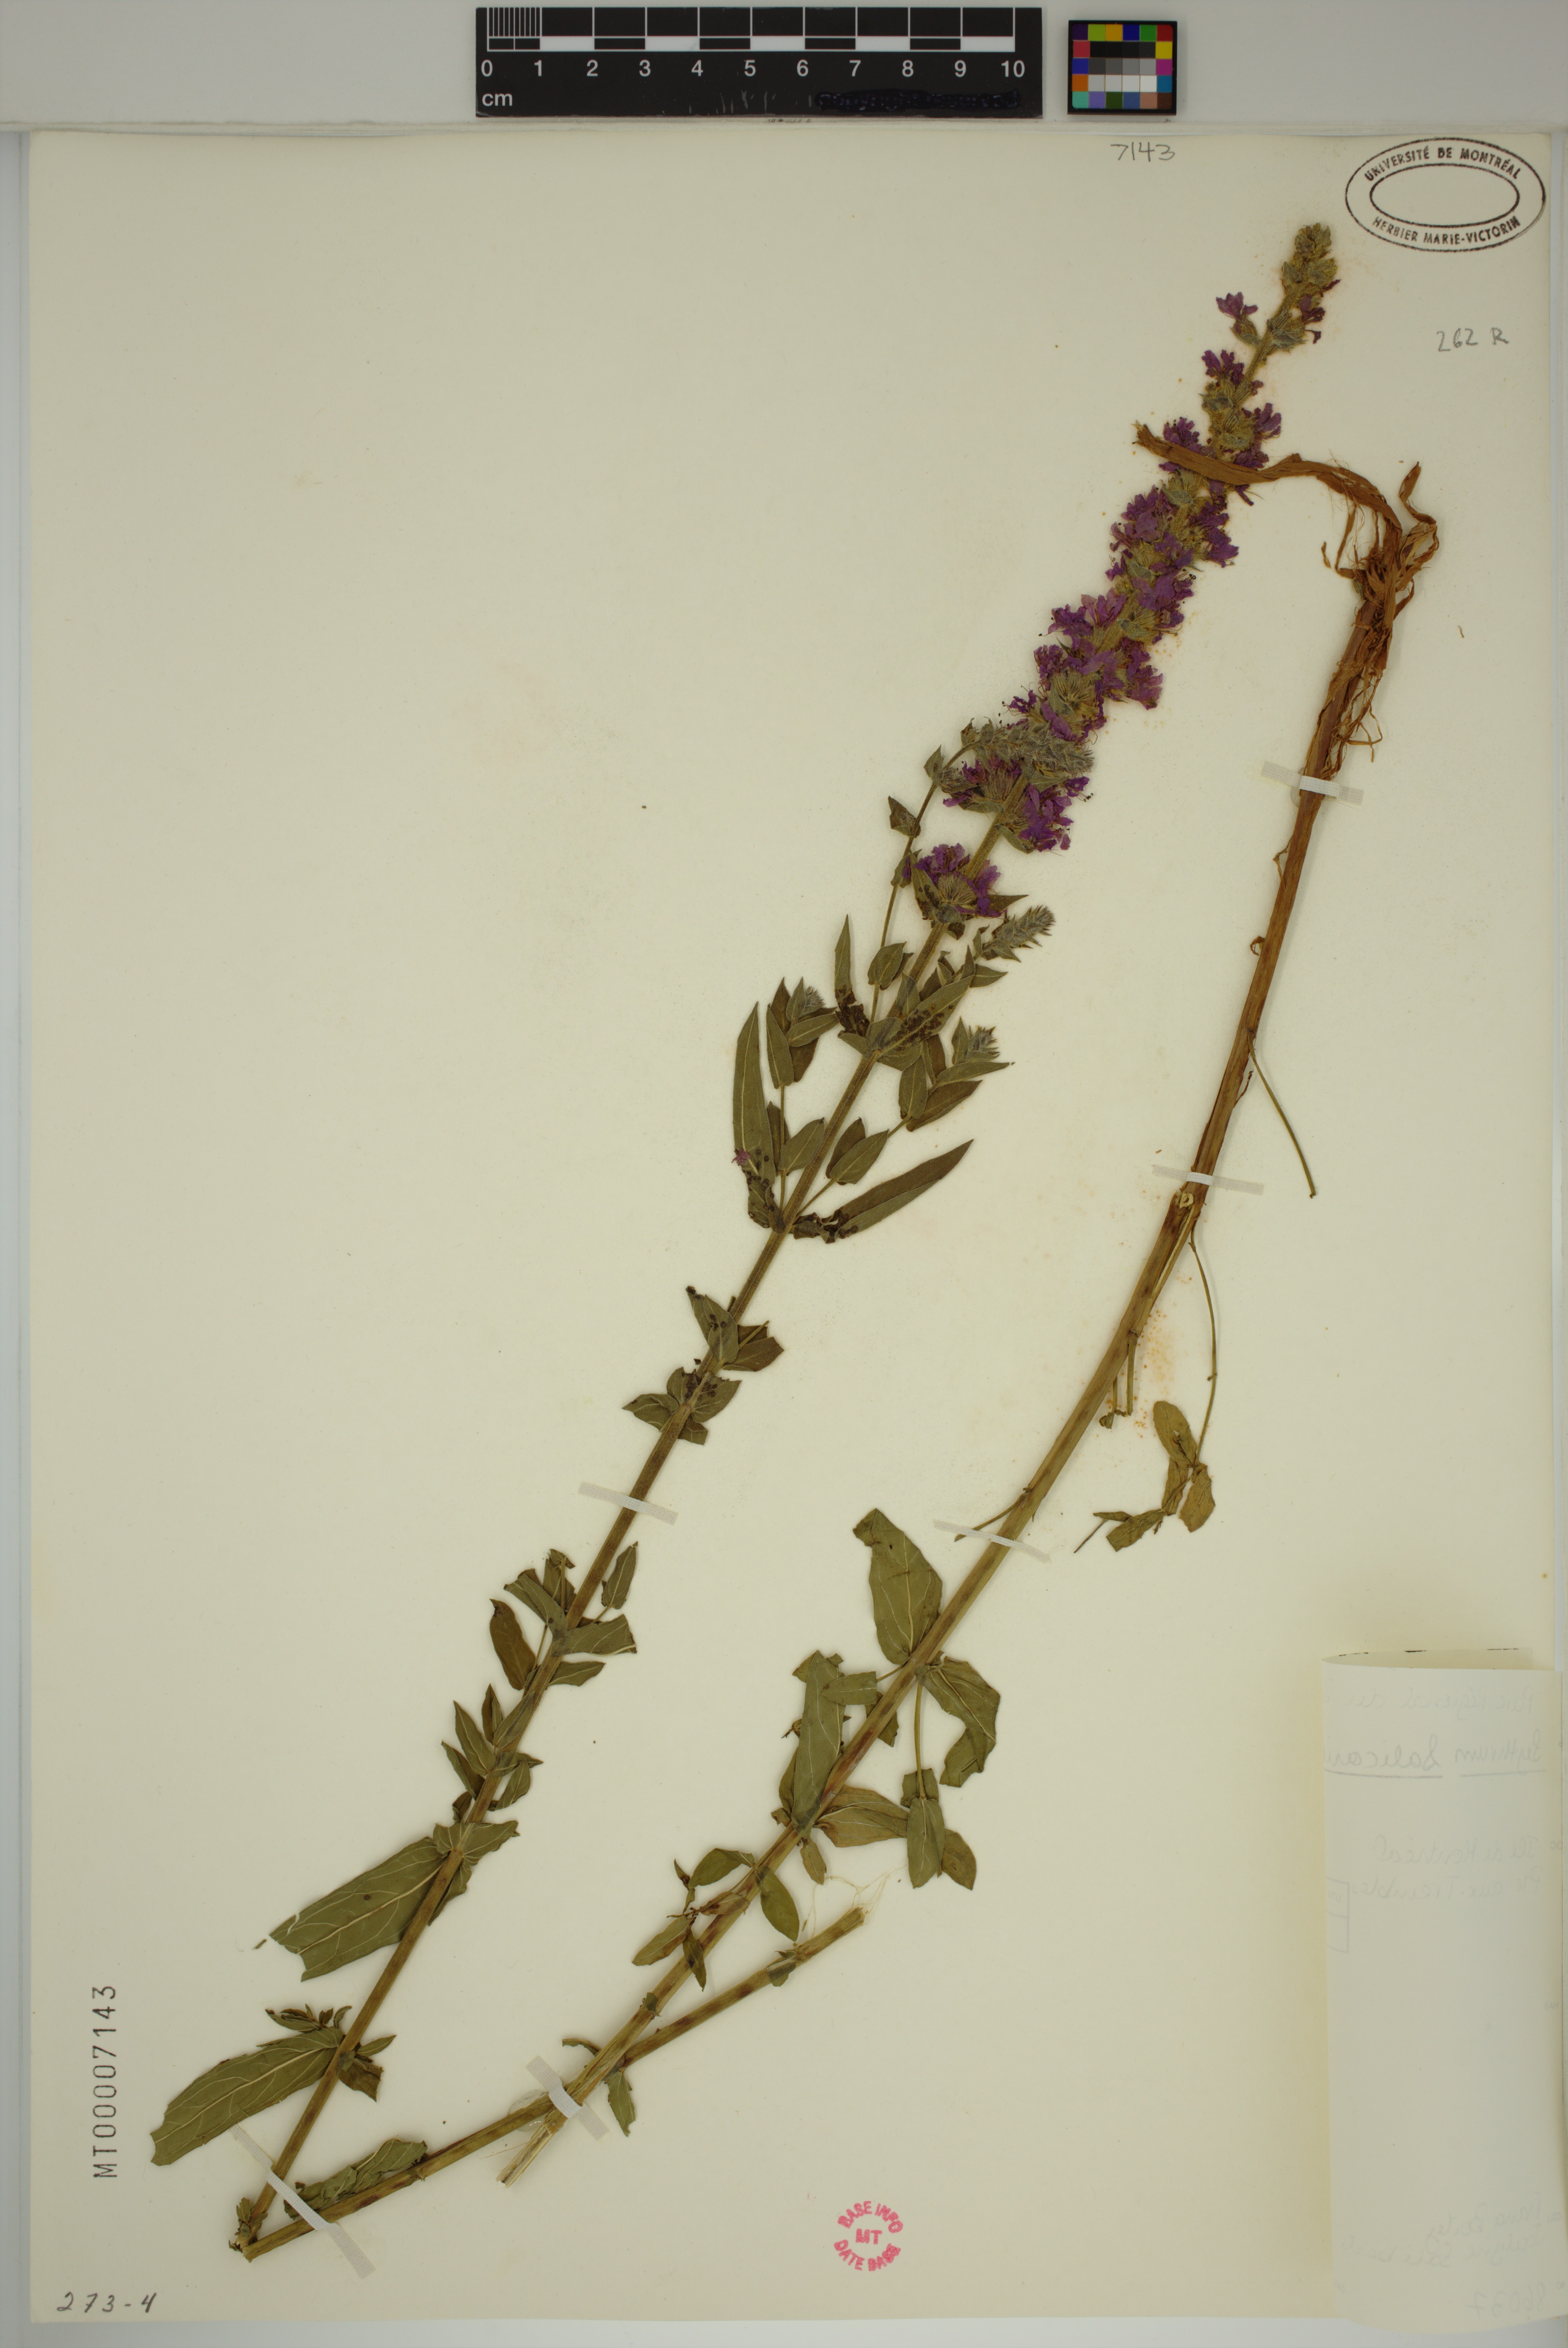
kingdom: Plantae
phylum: Tracheophyta
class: Magnoliopsida
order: Myrtales
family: Lythraceae
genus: Lythrum
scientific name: Lythrum salicaria
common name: Purple loosestrife
